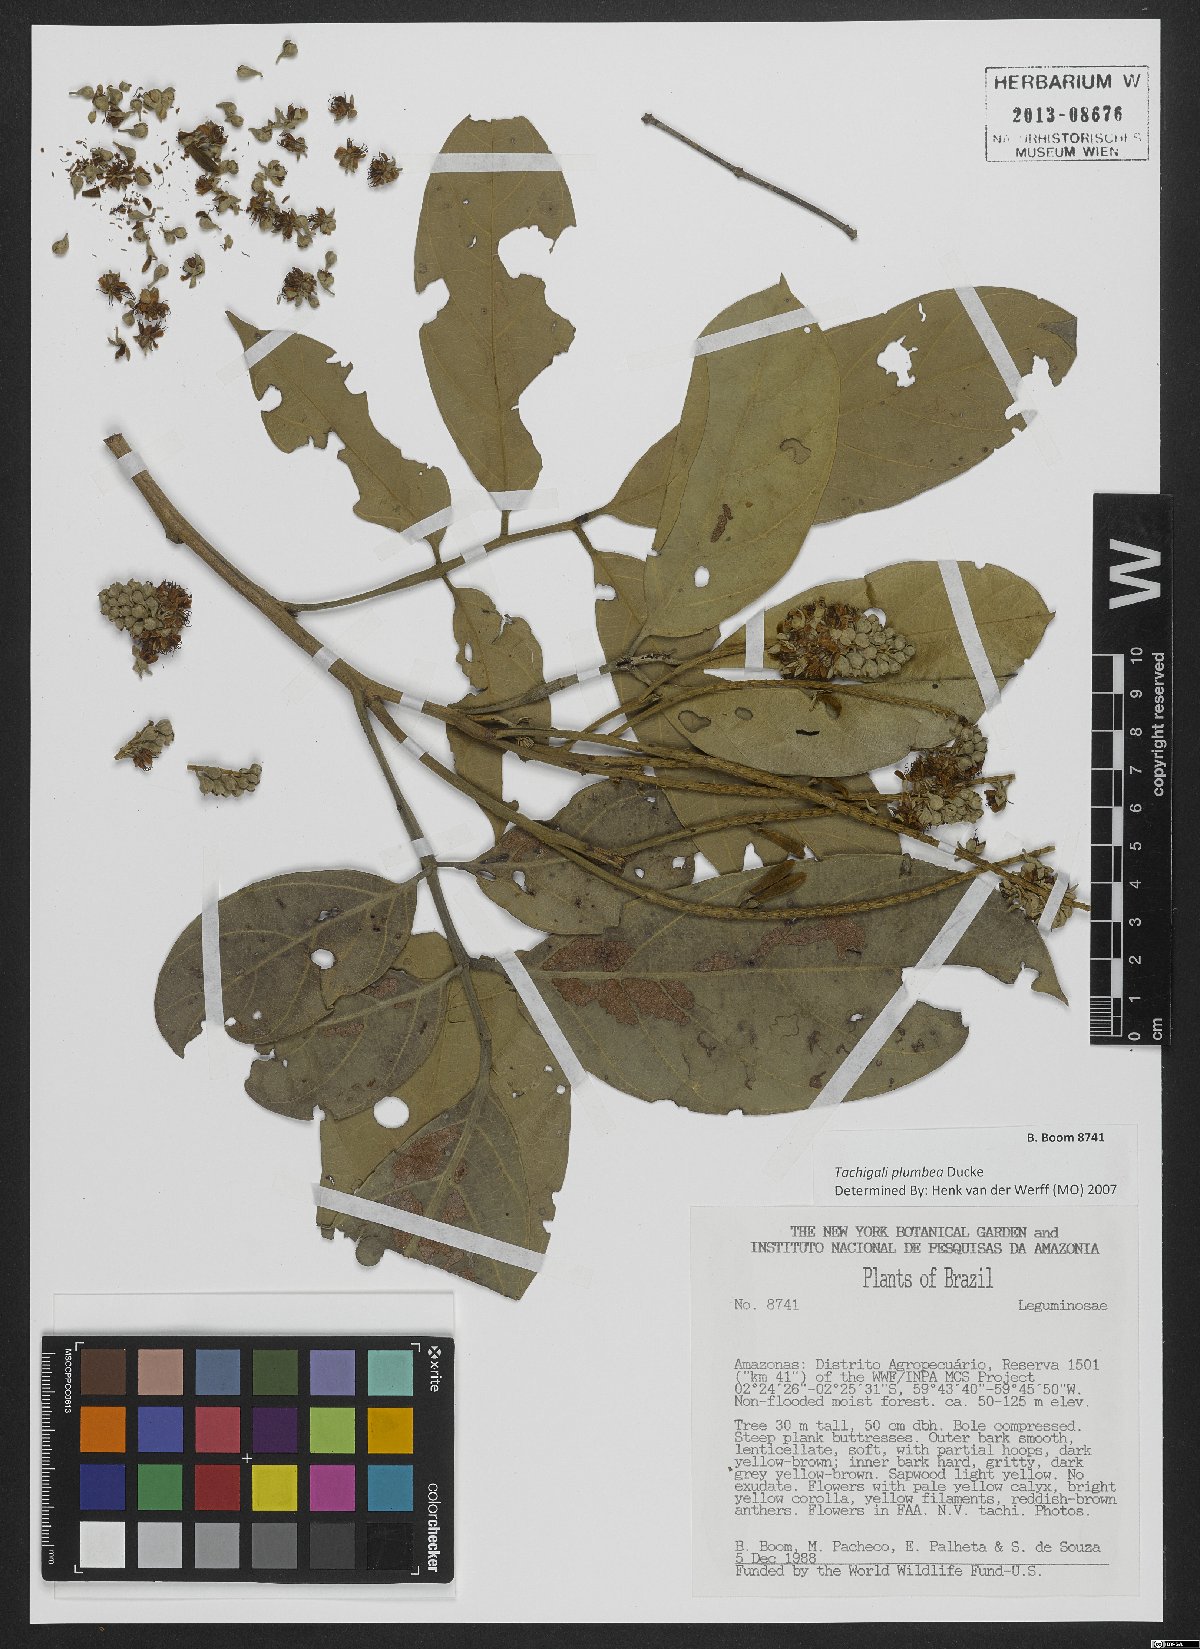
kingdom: Plantae
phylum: Tracheophyta
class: Magnoliopsida
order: Fabales
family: Fabaceae
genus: Tachigali
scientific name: Tachigali plumbea
